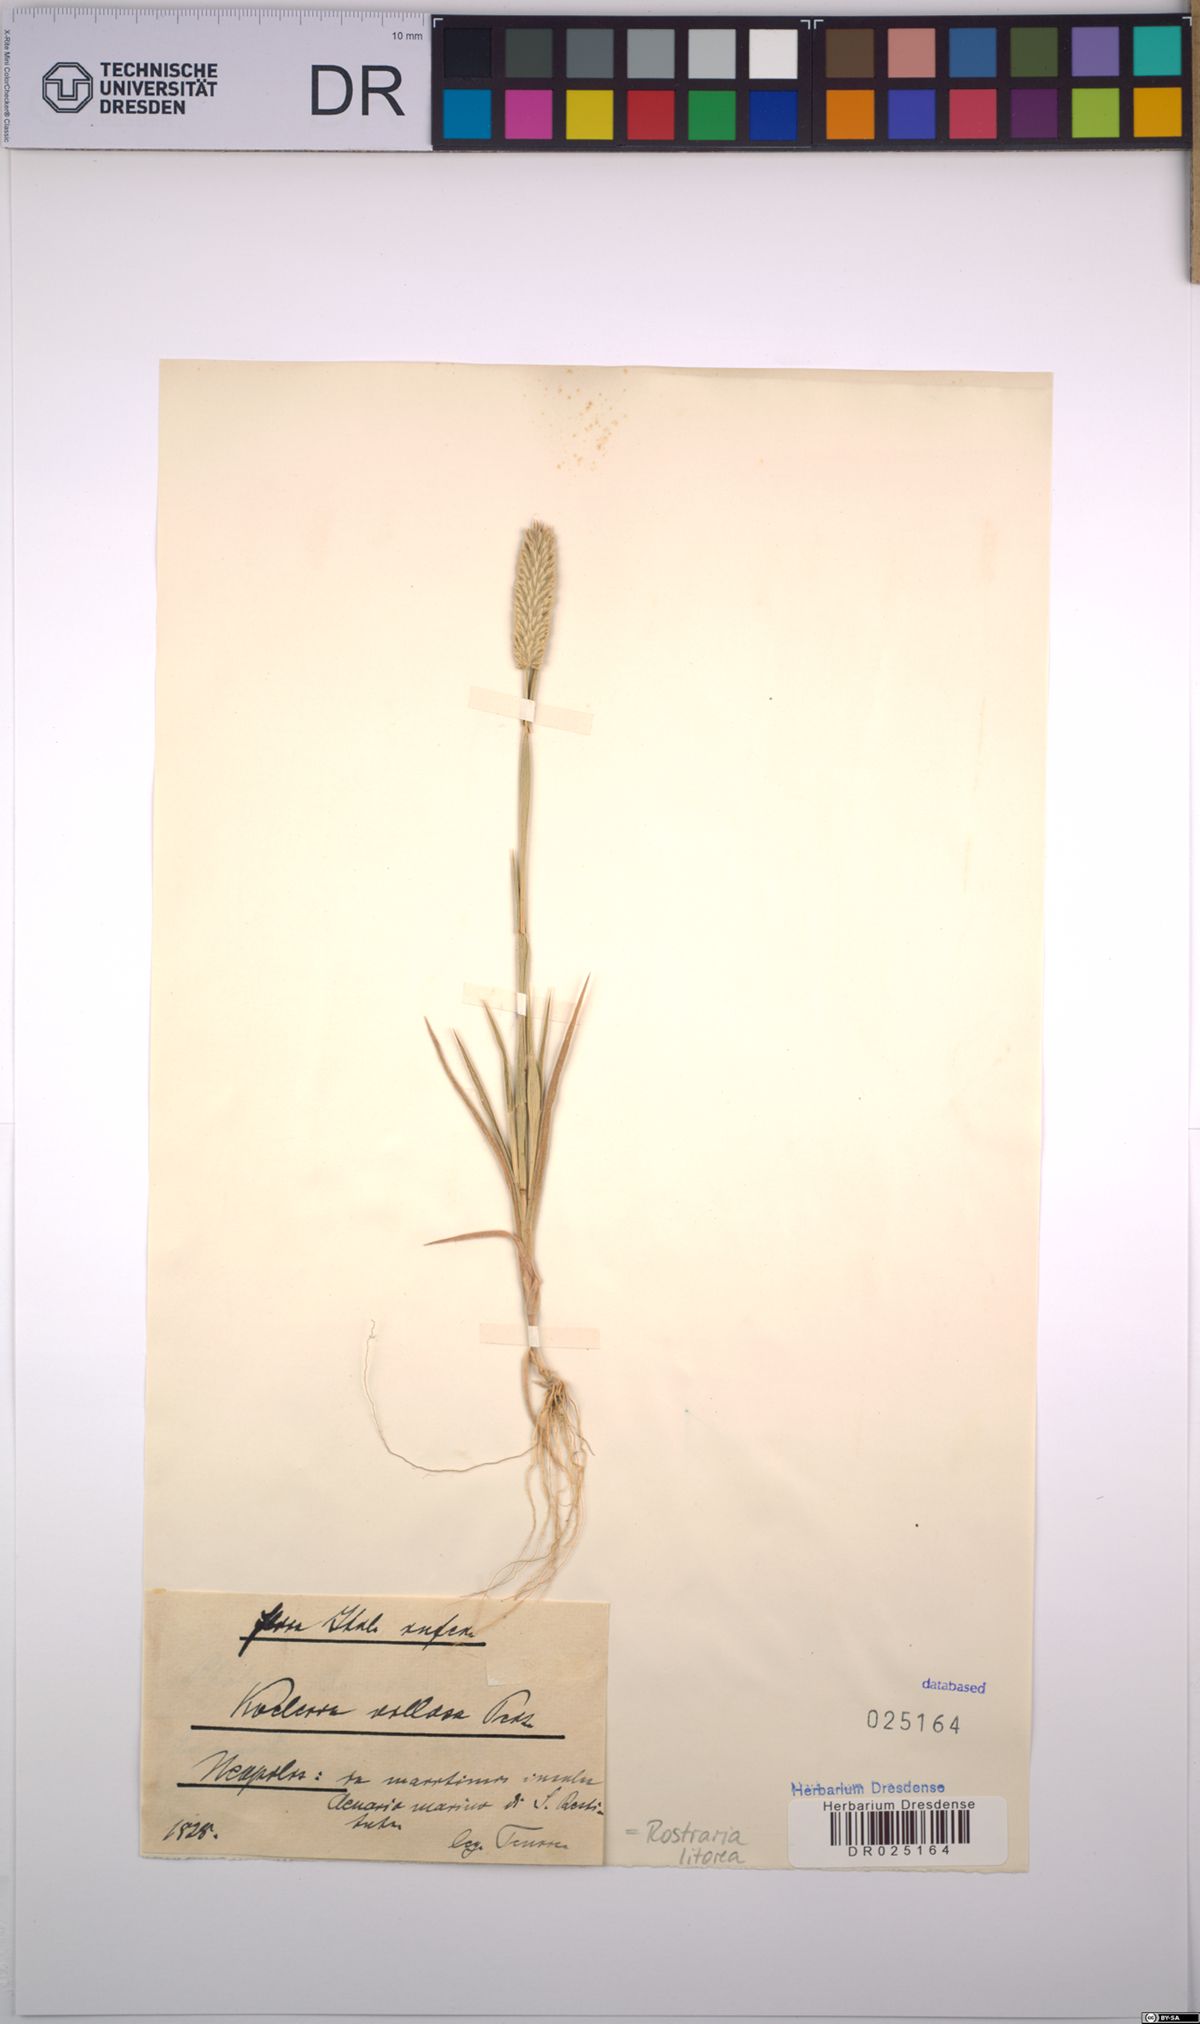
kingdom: Plantae
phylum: Tracheophyta
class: Liliopsida
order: Poales
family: Poaceae
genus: Rostraria
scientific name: Rostraria litorea
